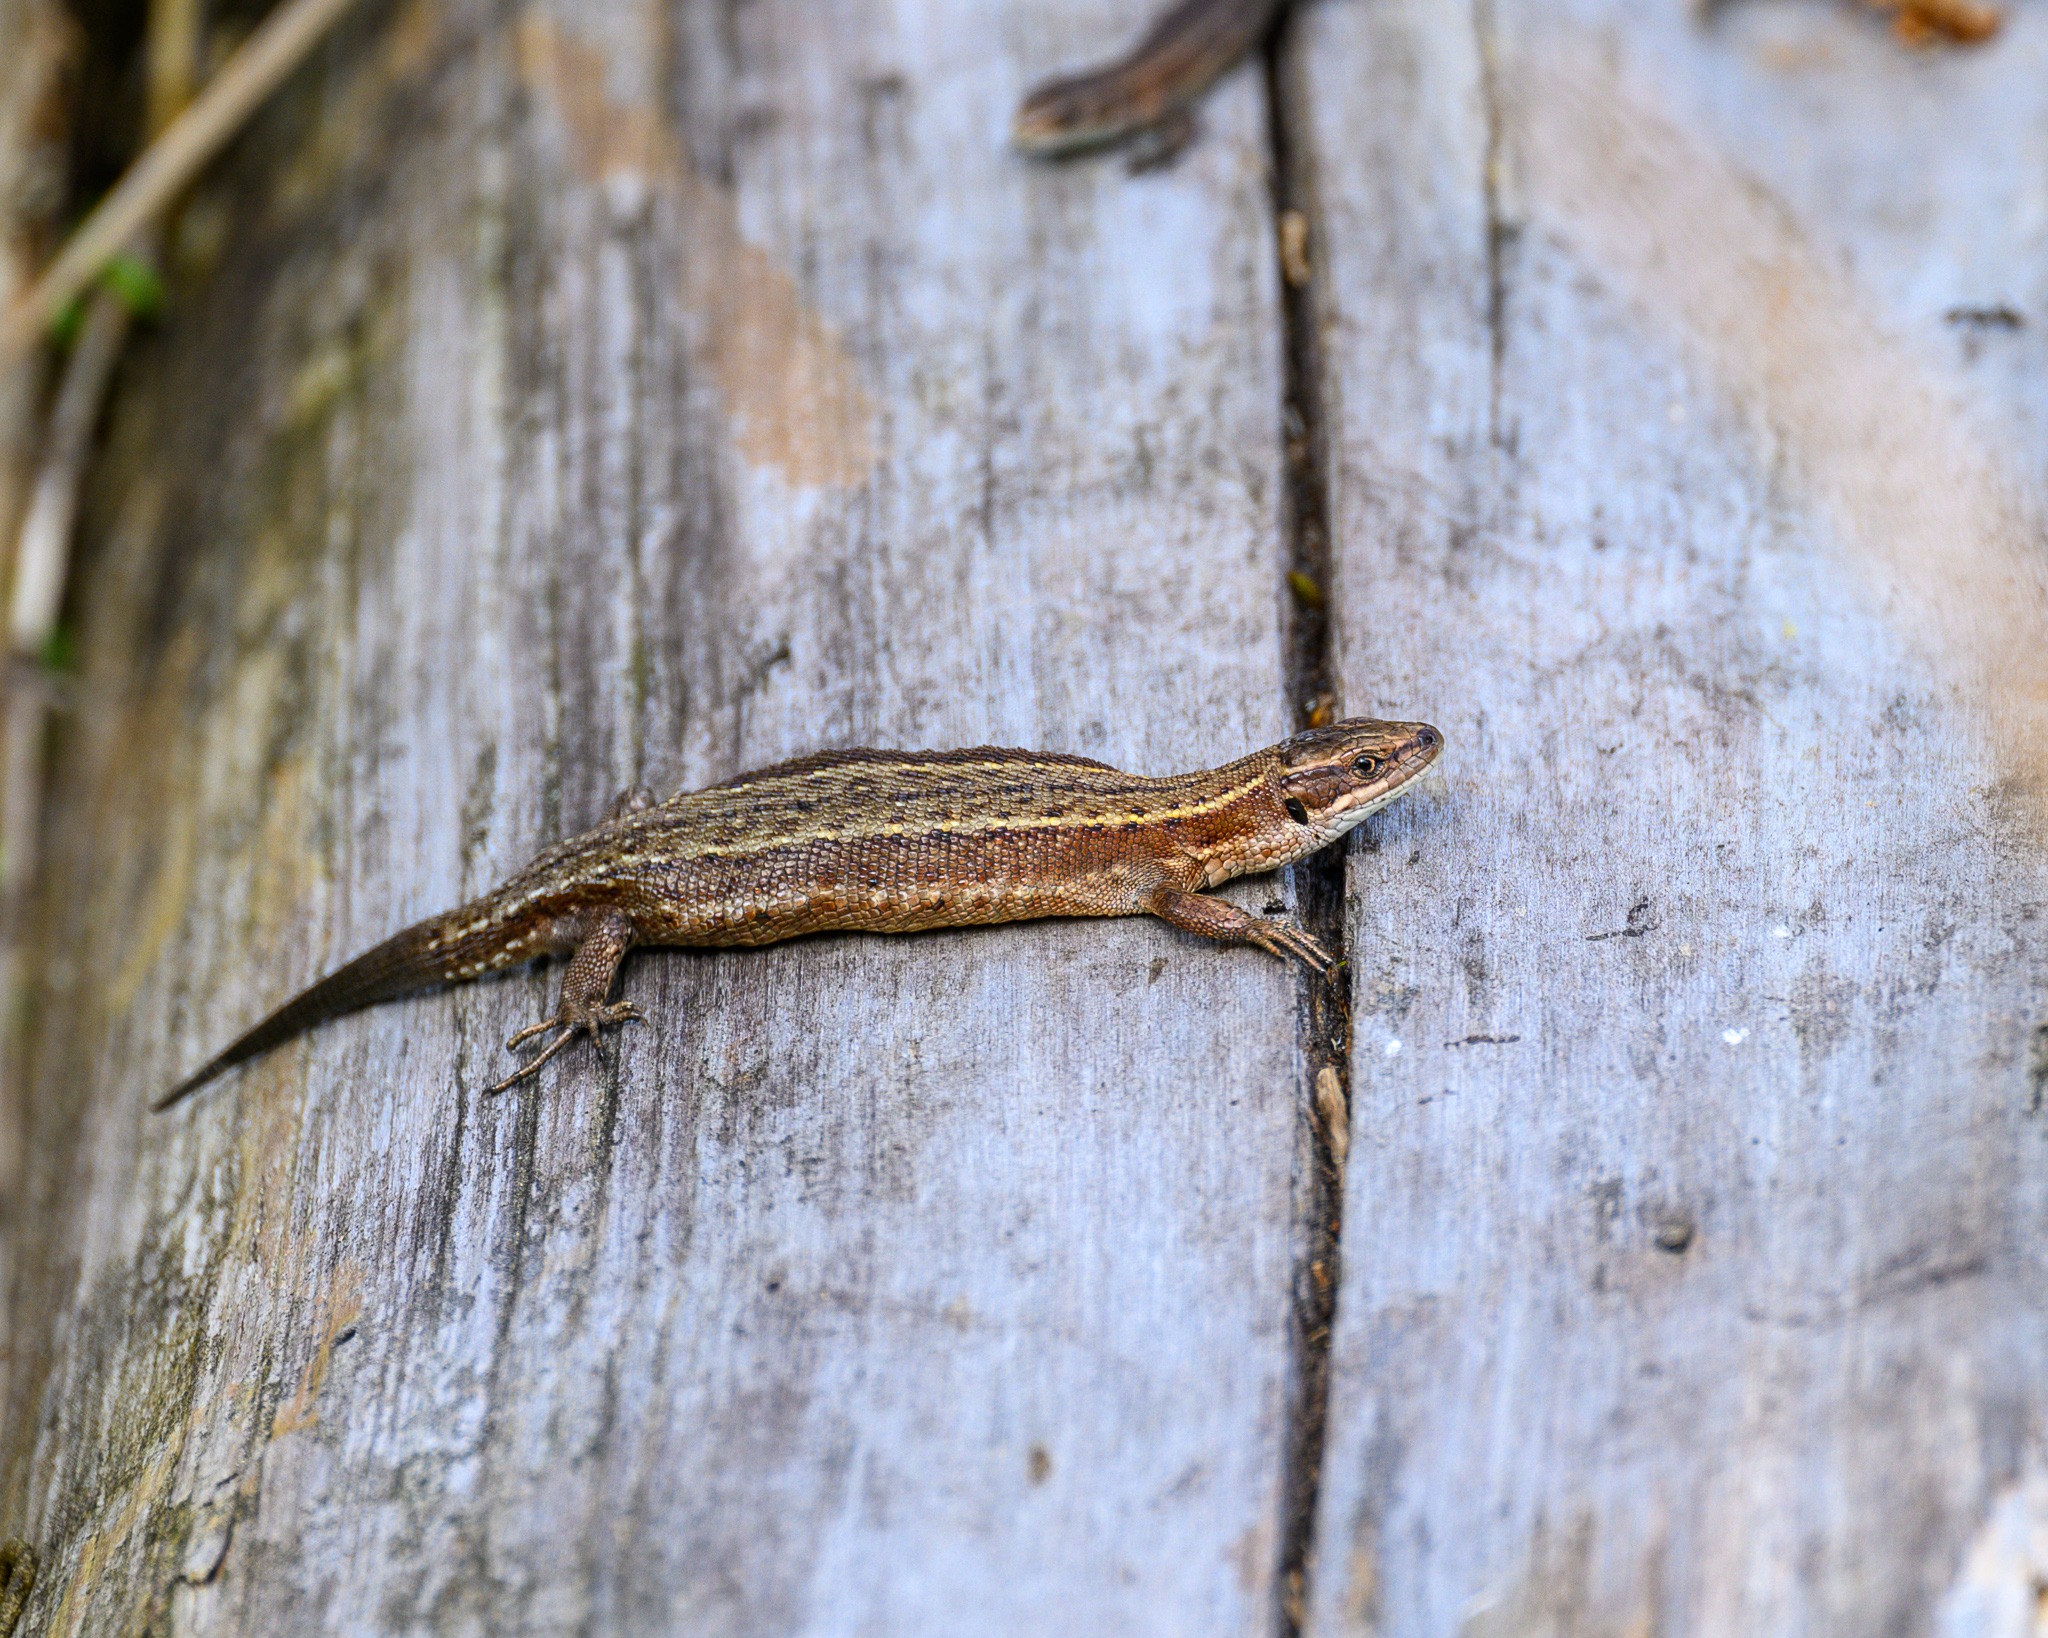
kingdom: Animalia
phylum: Chordata
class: Squamata
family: Lacertidae
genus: Zootoca
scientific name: Zootoca vivipara
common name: Skovfirben
